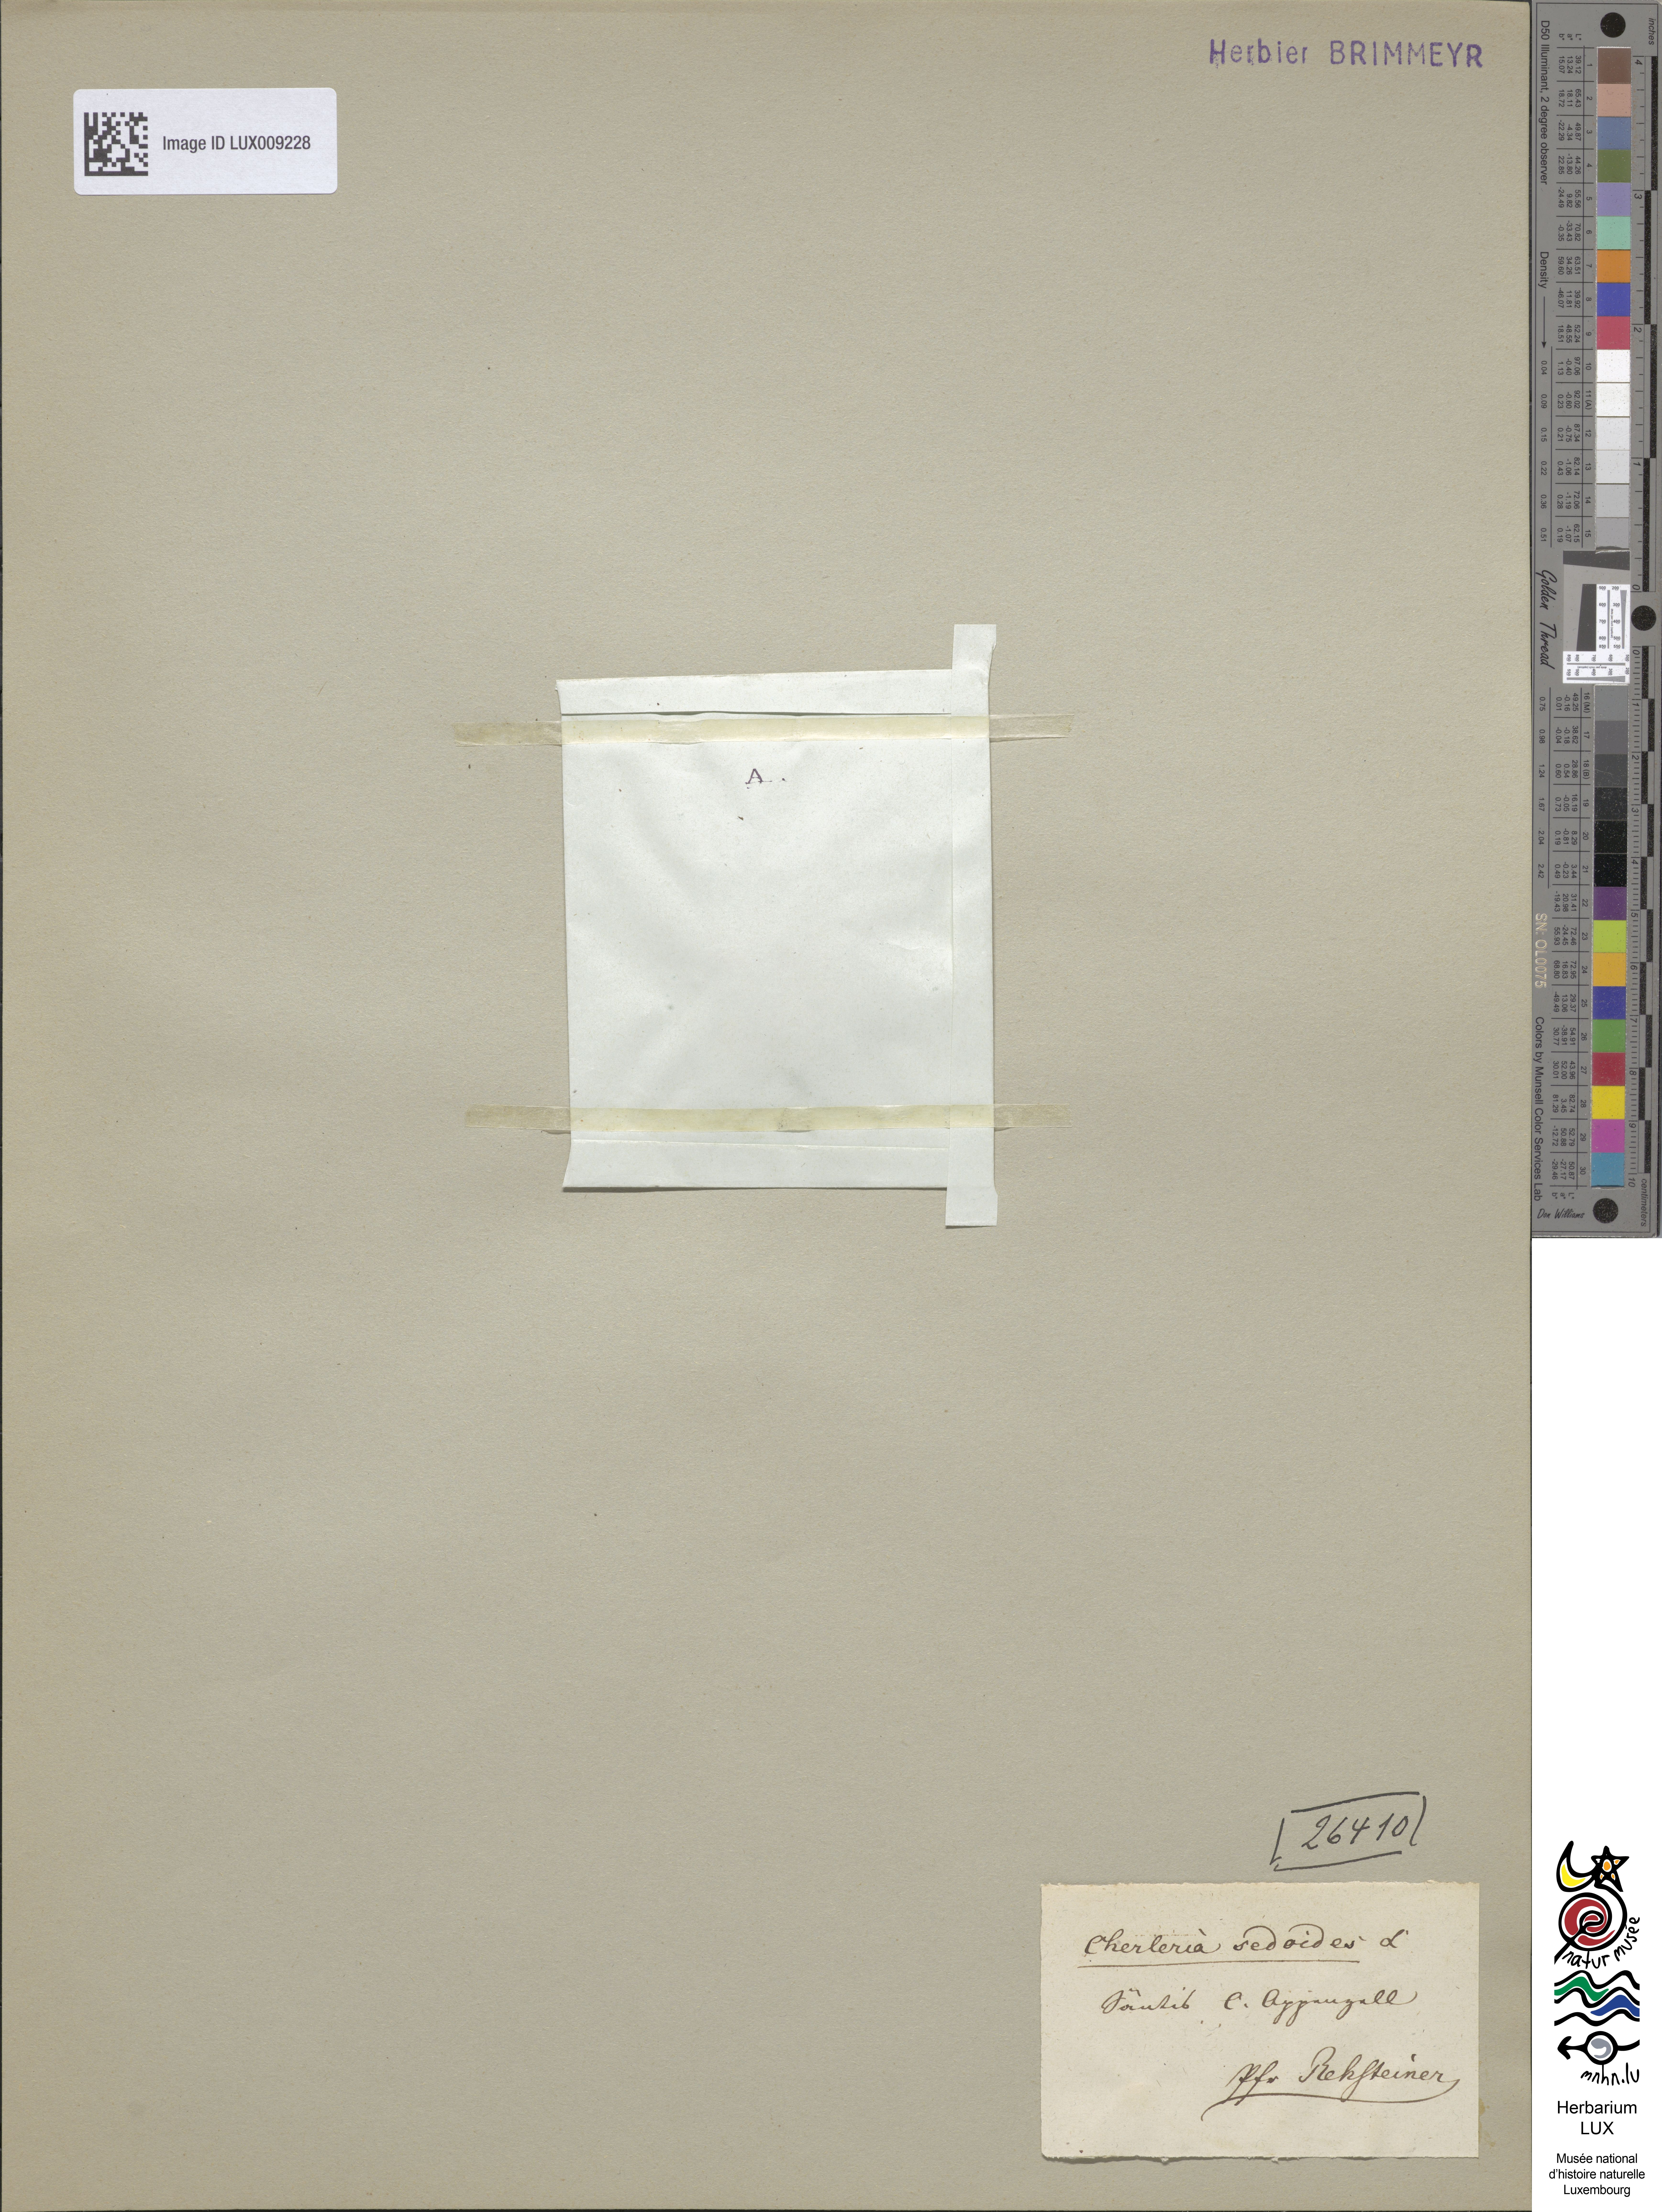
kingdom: Plantae
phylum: Tracheophyta
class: Magnoliopsida
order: Caryophyllales
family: Caryophyllaceae
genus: Cherleria
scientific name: Cherleria sedoides
